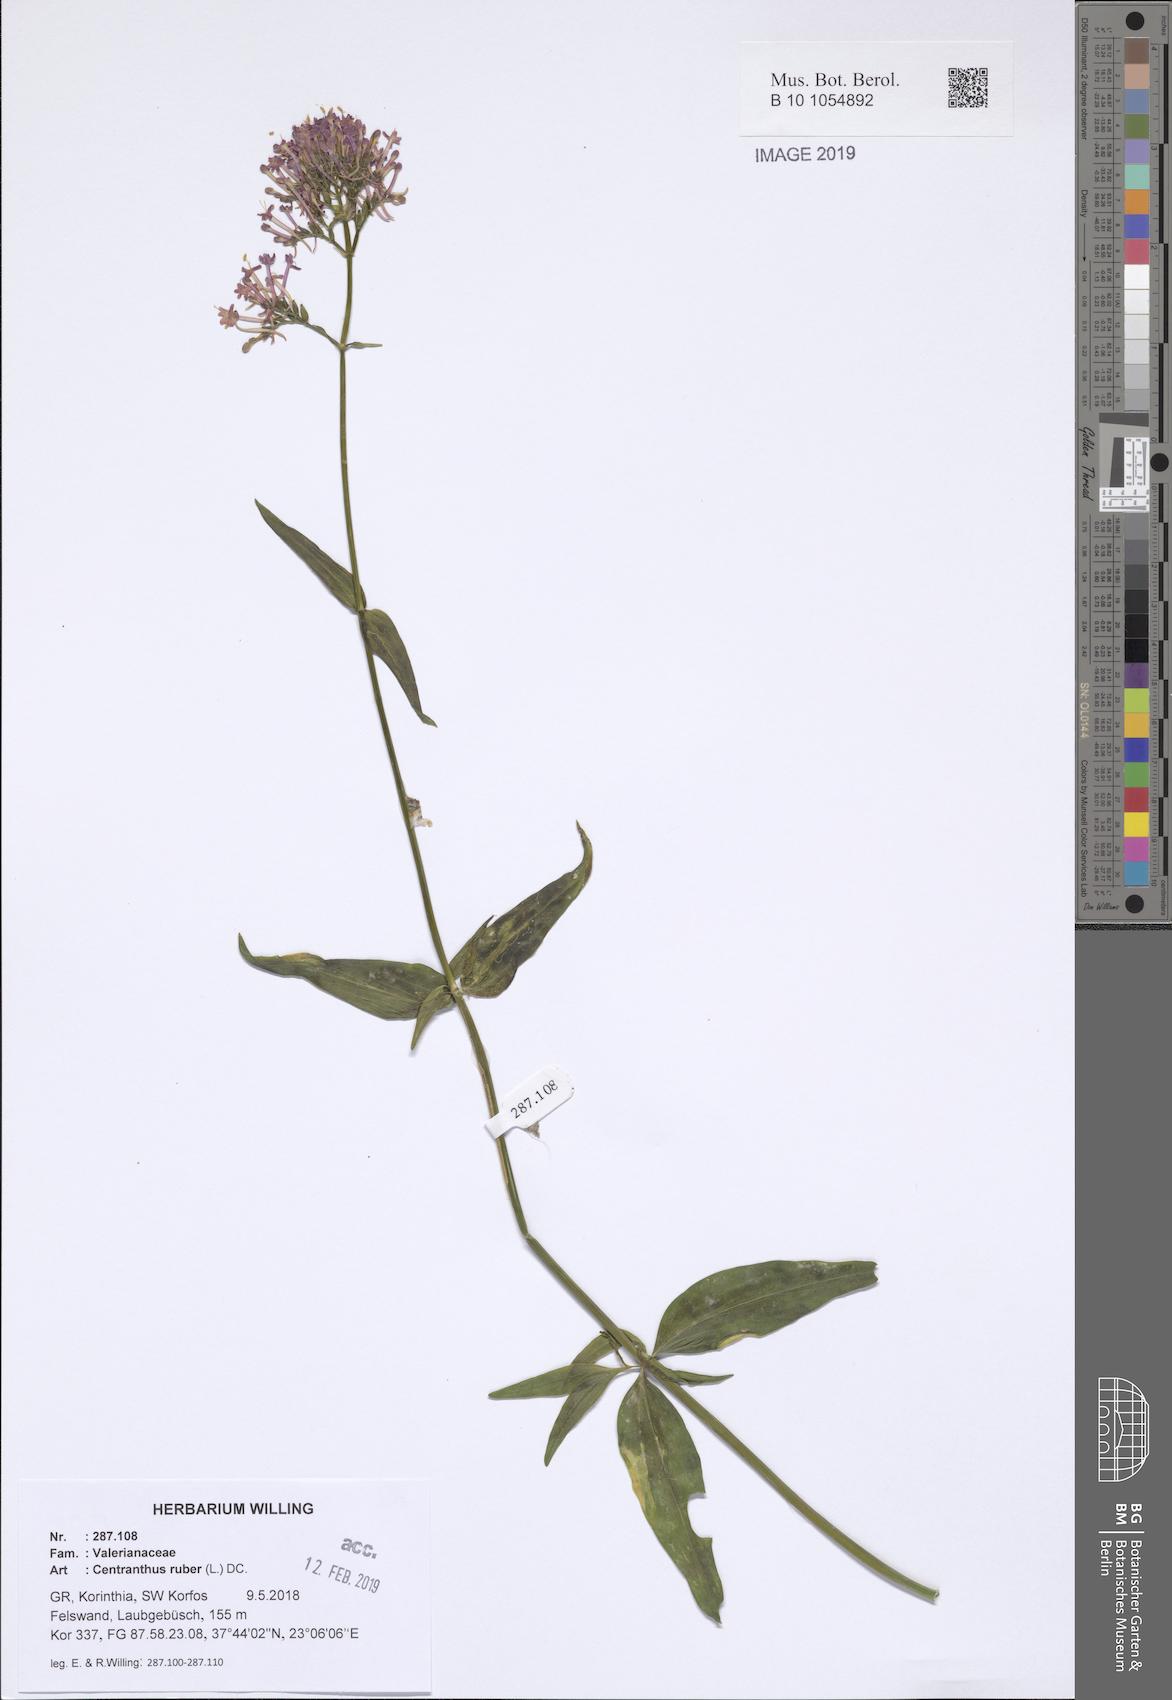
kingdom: Plantae
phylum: Tracheophyta
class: Magnoliopsida
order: Dipsacales
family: Caprifoliaceae
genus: Centranthus
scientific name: Centranthus ruber
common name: Red valerian
